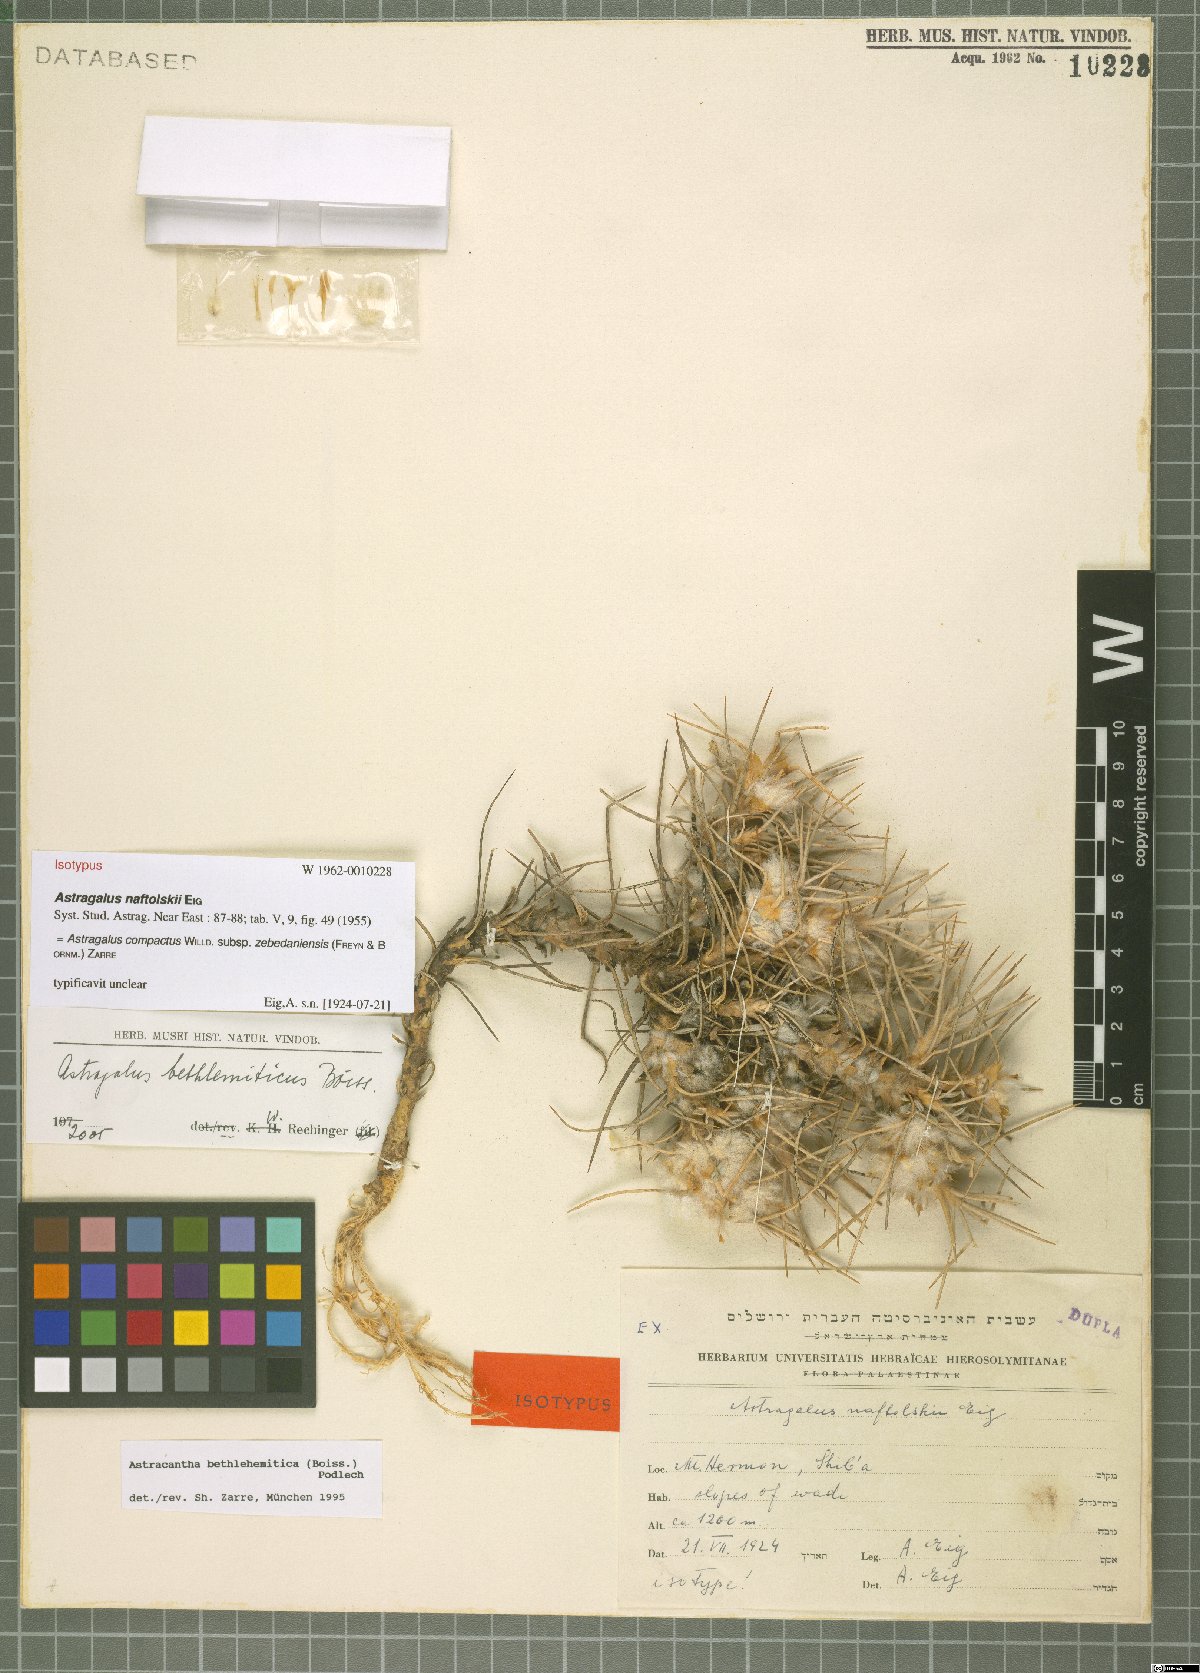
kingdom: Plantae
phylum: Tracheophyta
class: Magnoliopsida
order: Fabales
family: Fabaceae
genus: Astragalus
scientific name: Astragalus compactus
